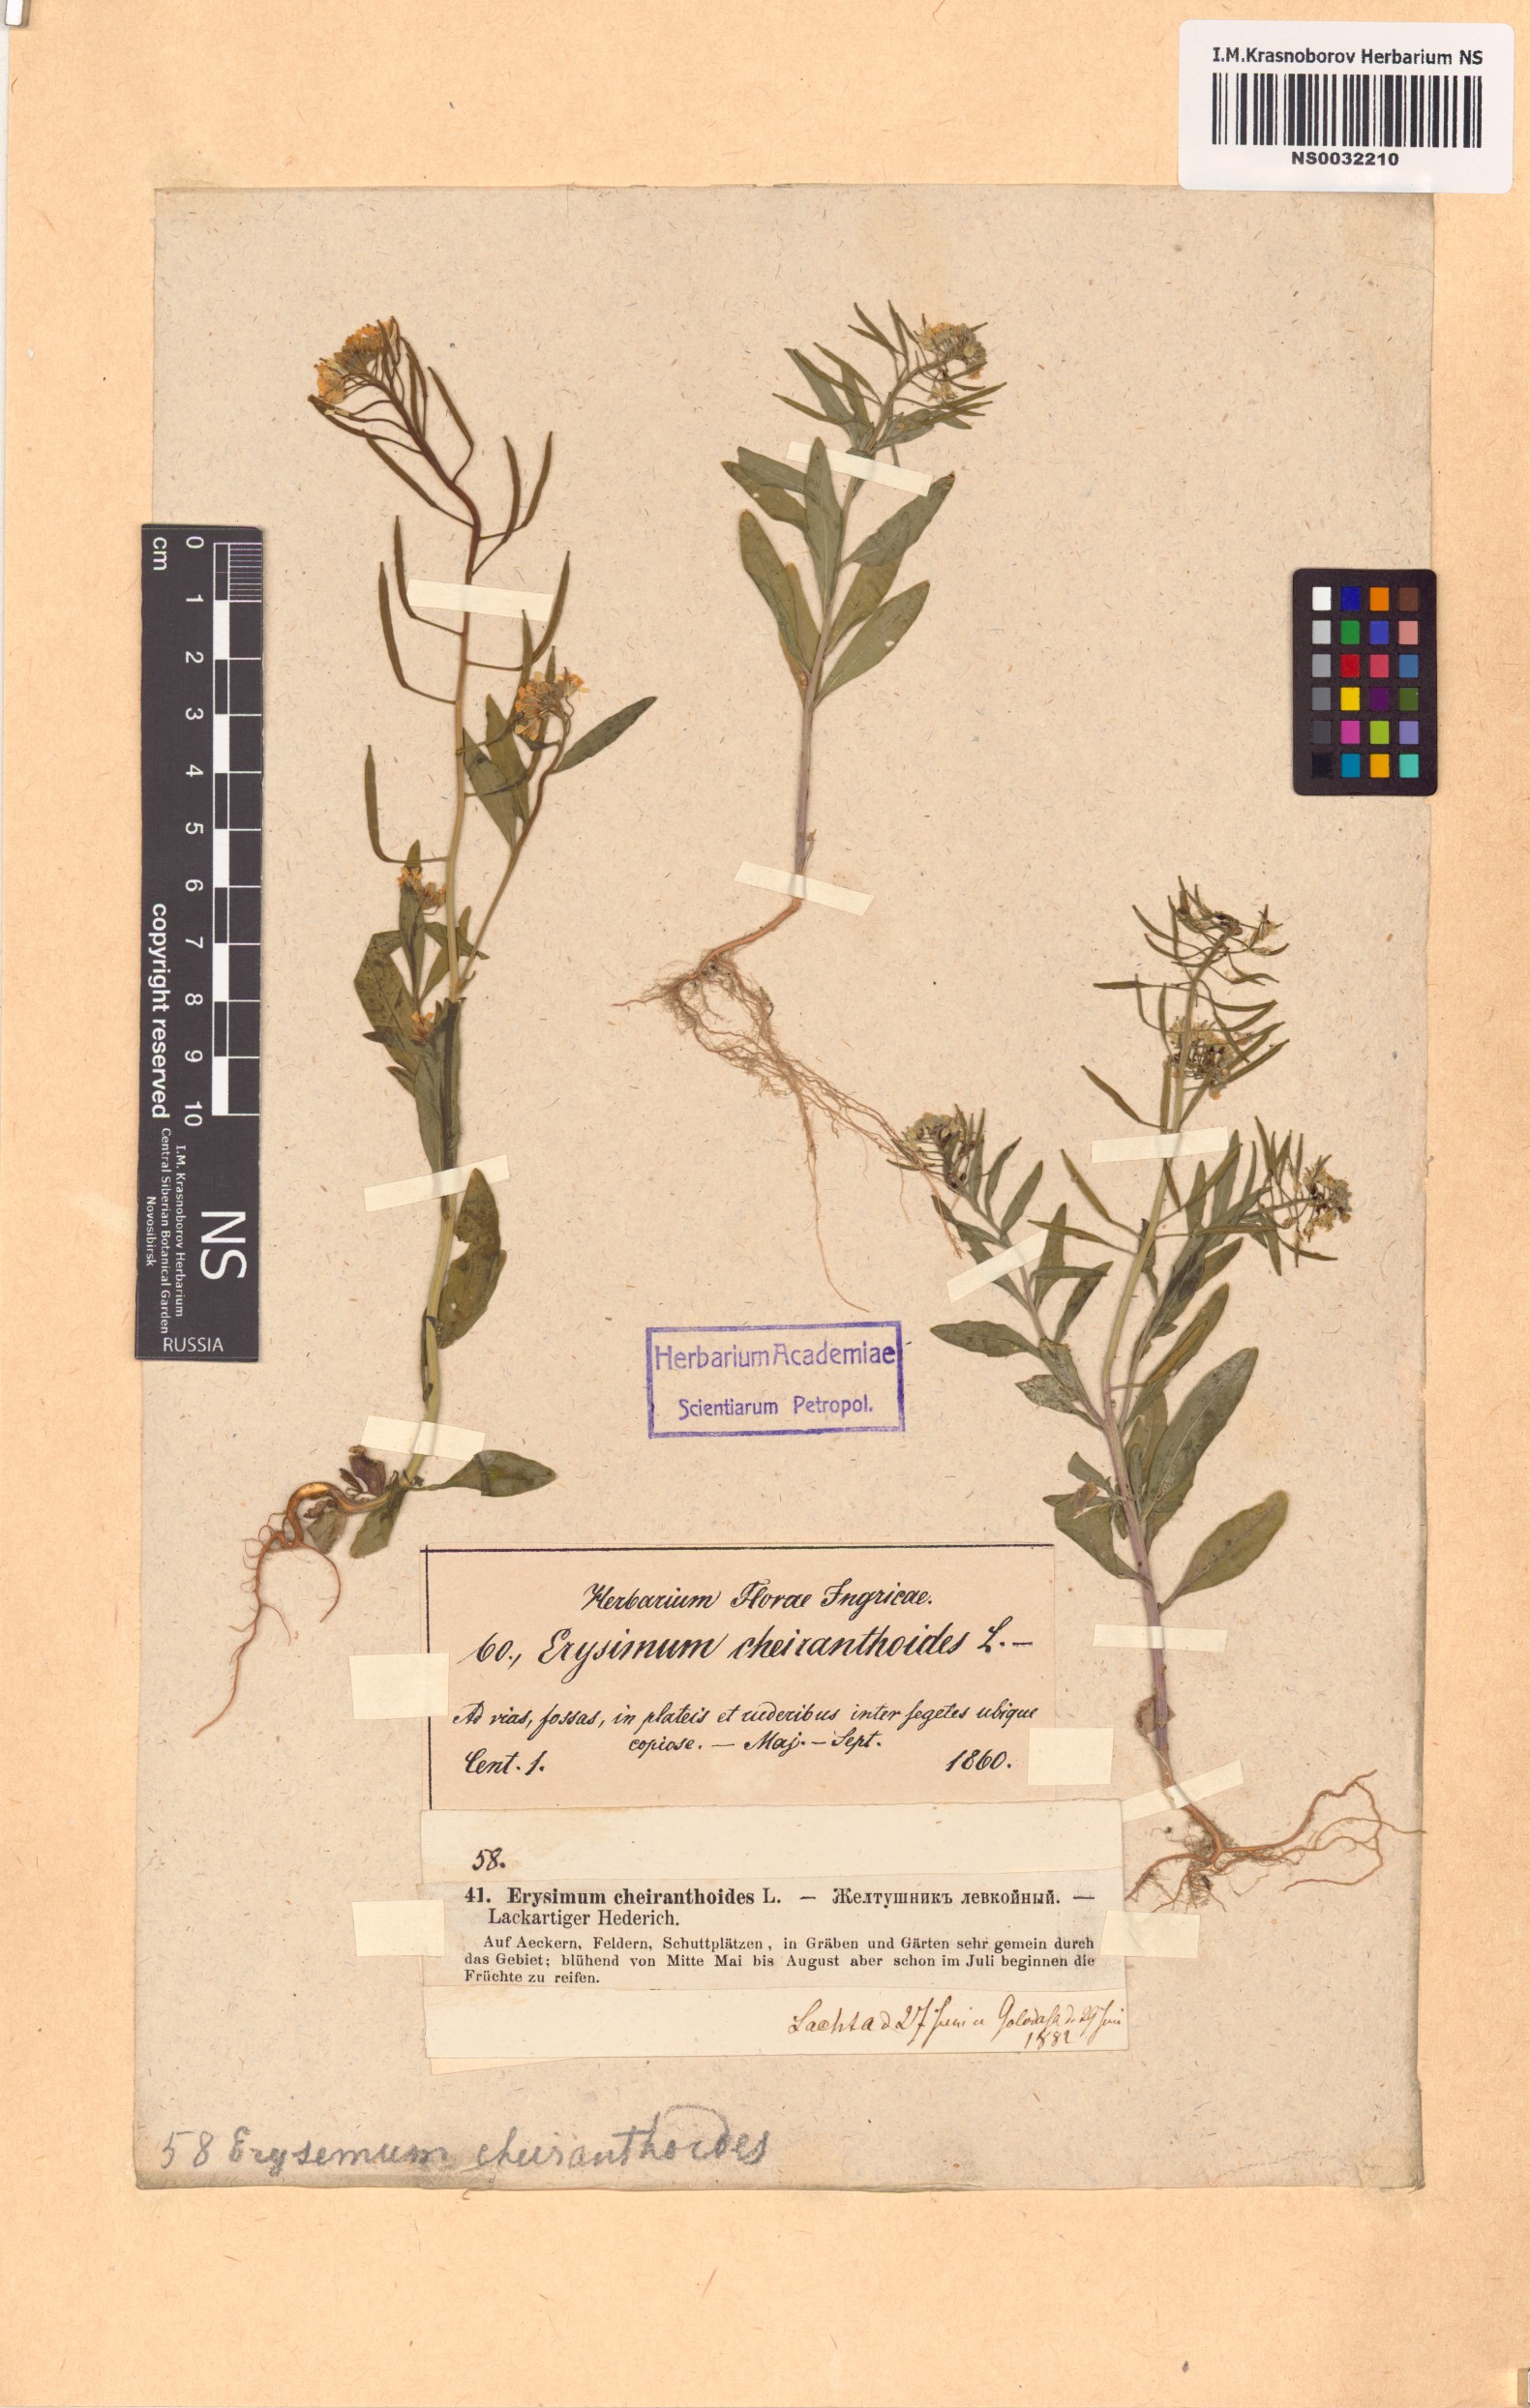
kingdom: Plantae
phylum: Tracheophyta
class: Magnoliopsida
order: Brassicales
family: Brassicaceae
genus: Erysimum
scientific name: Erysimum cheiranthoides
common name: Treacle mustard
